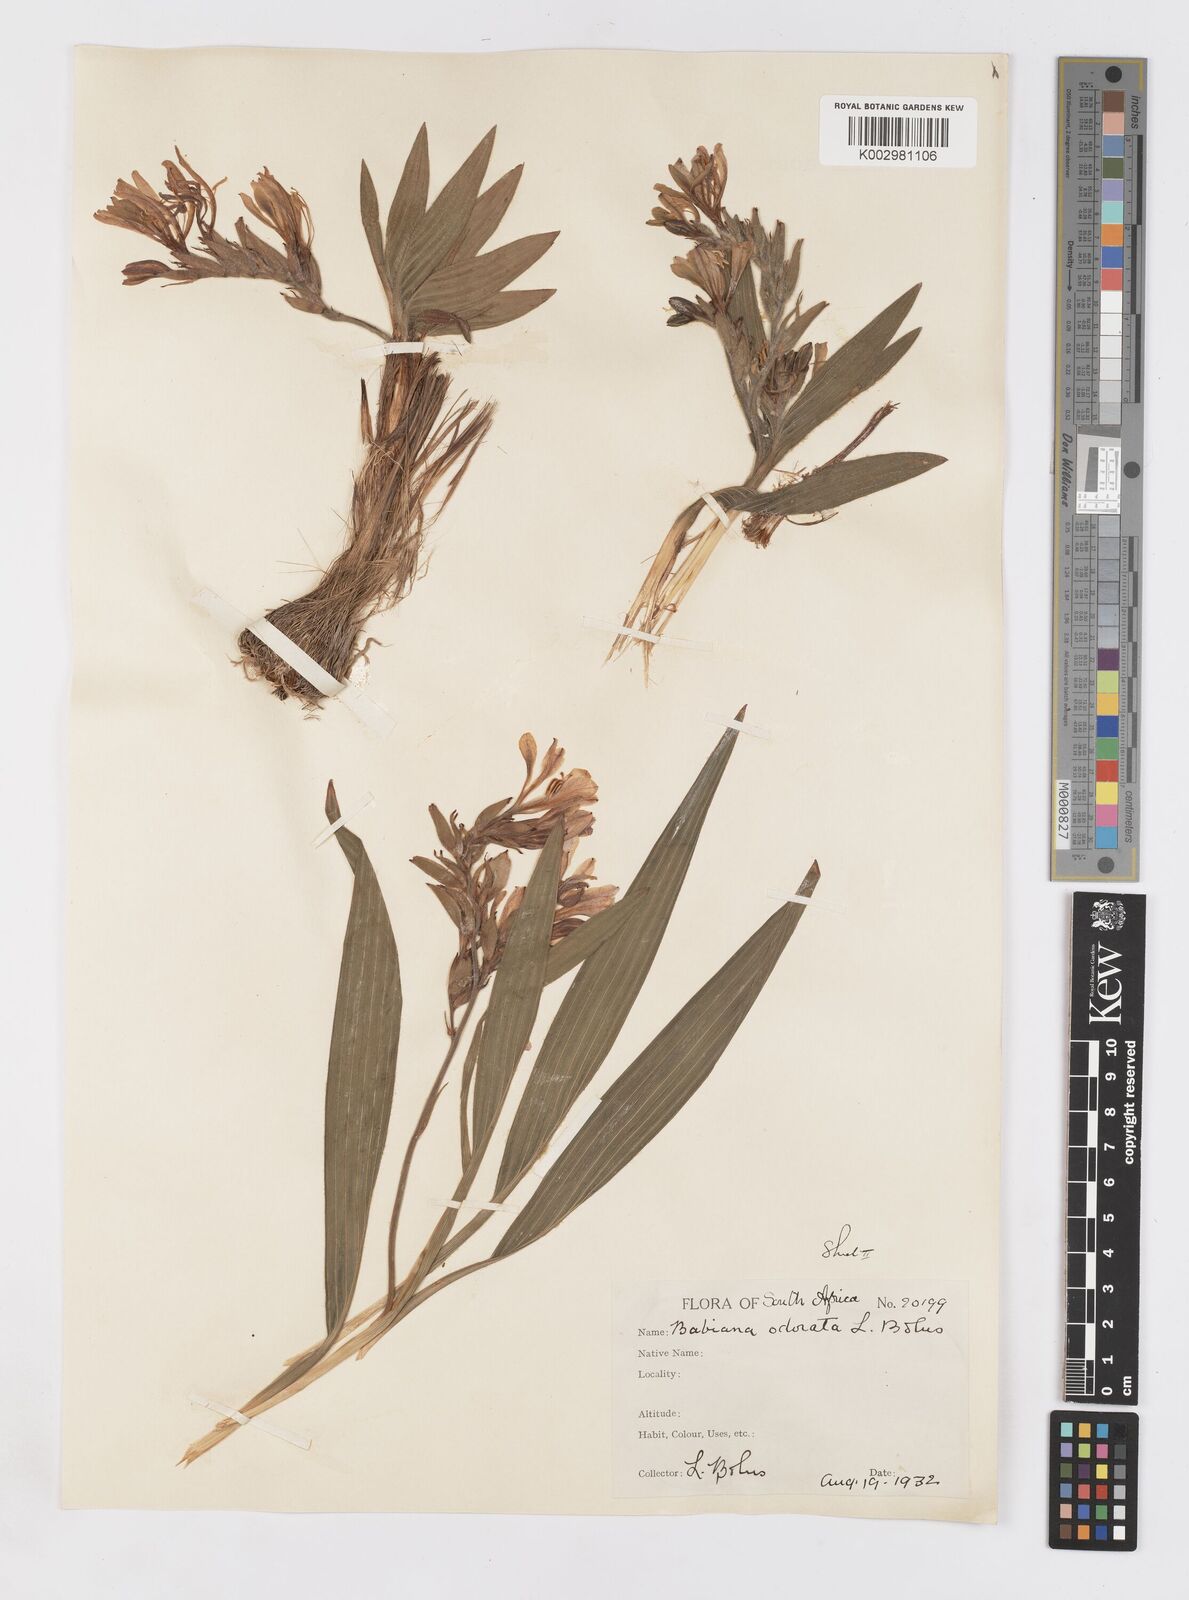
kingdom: Plantae
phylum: Tracheophyta
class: Liliopsida
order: Asparagales
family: Iridaceae
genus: Babiana
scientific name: Babiana odorata
